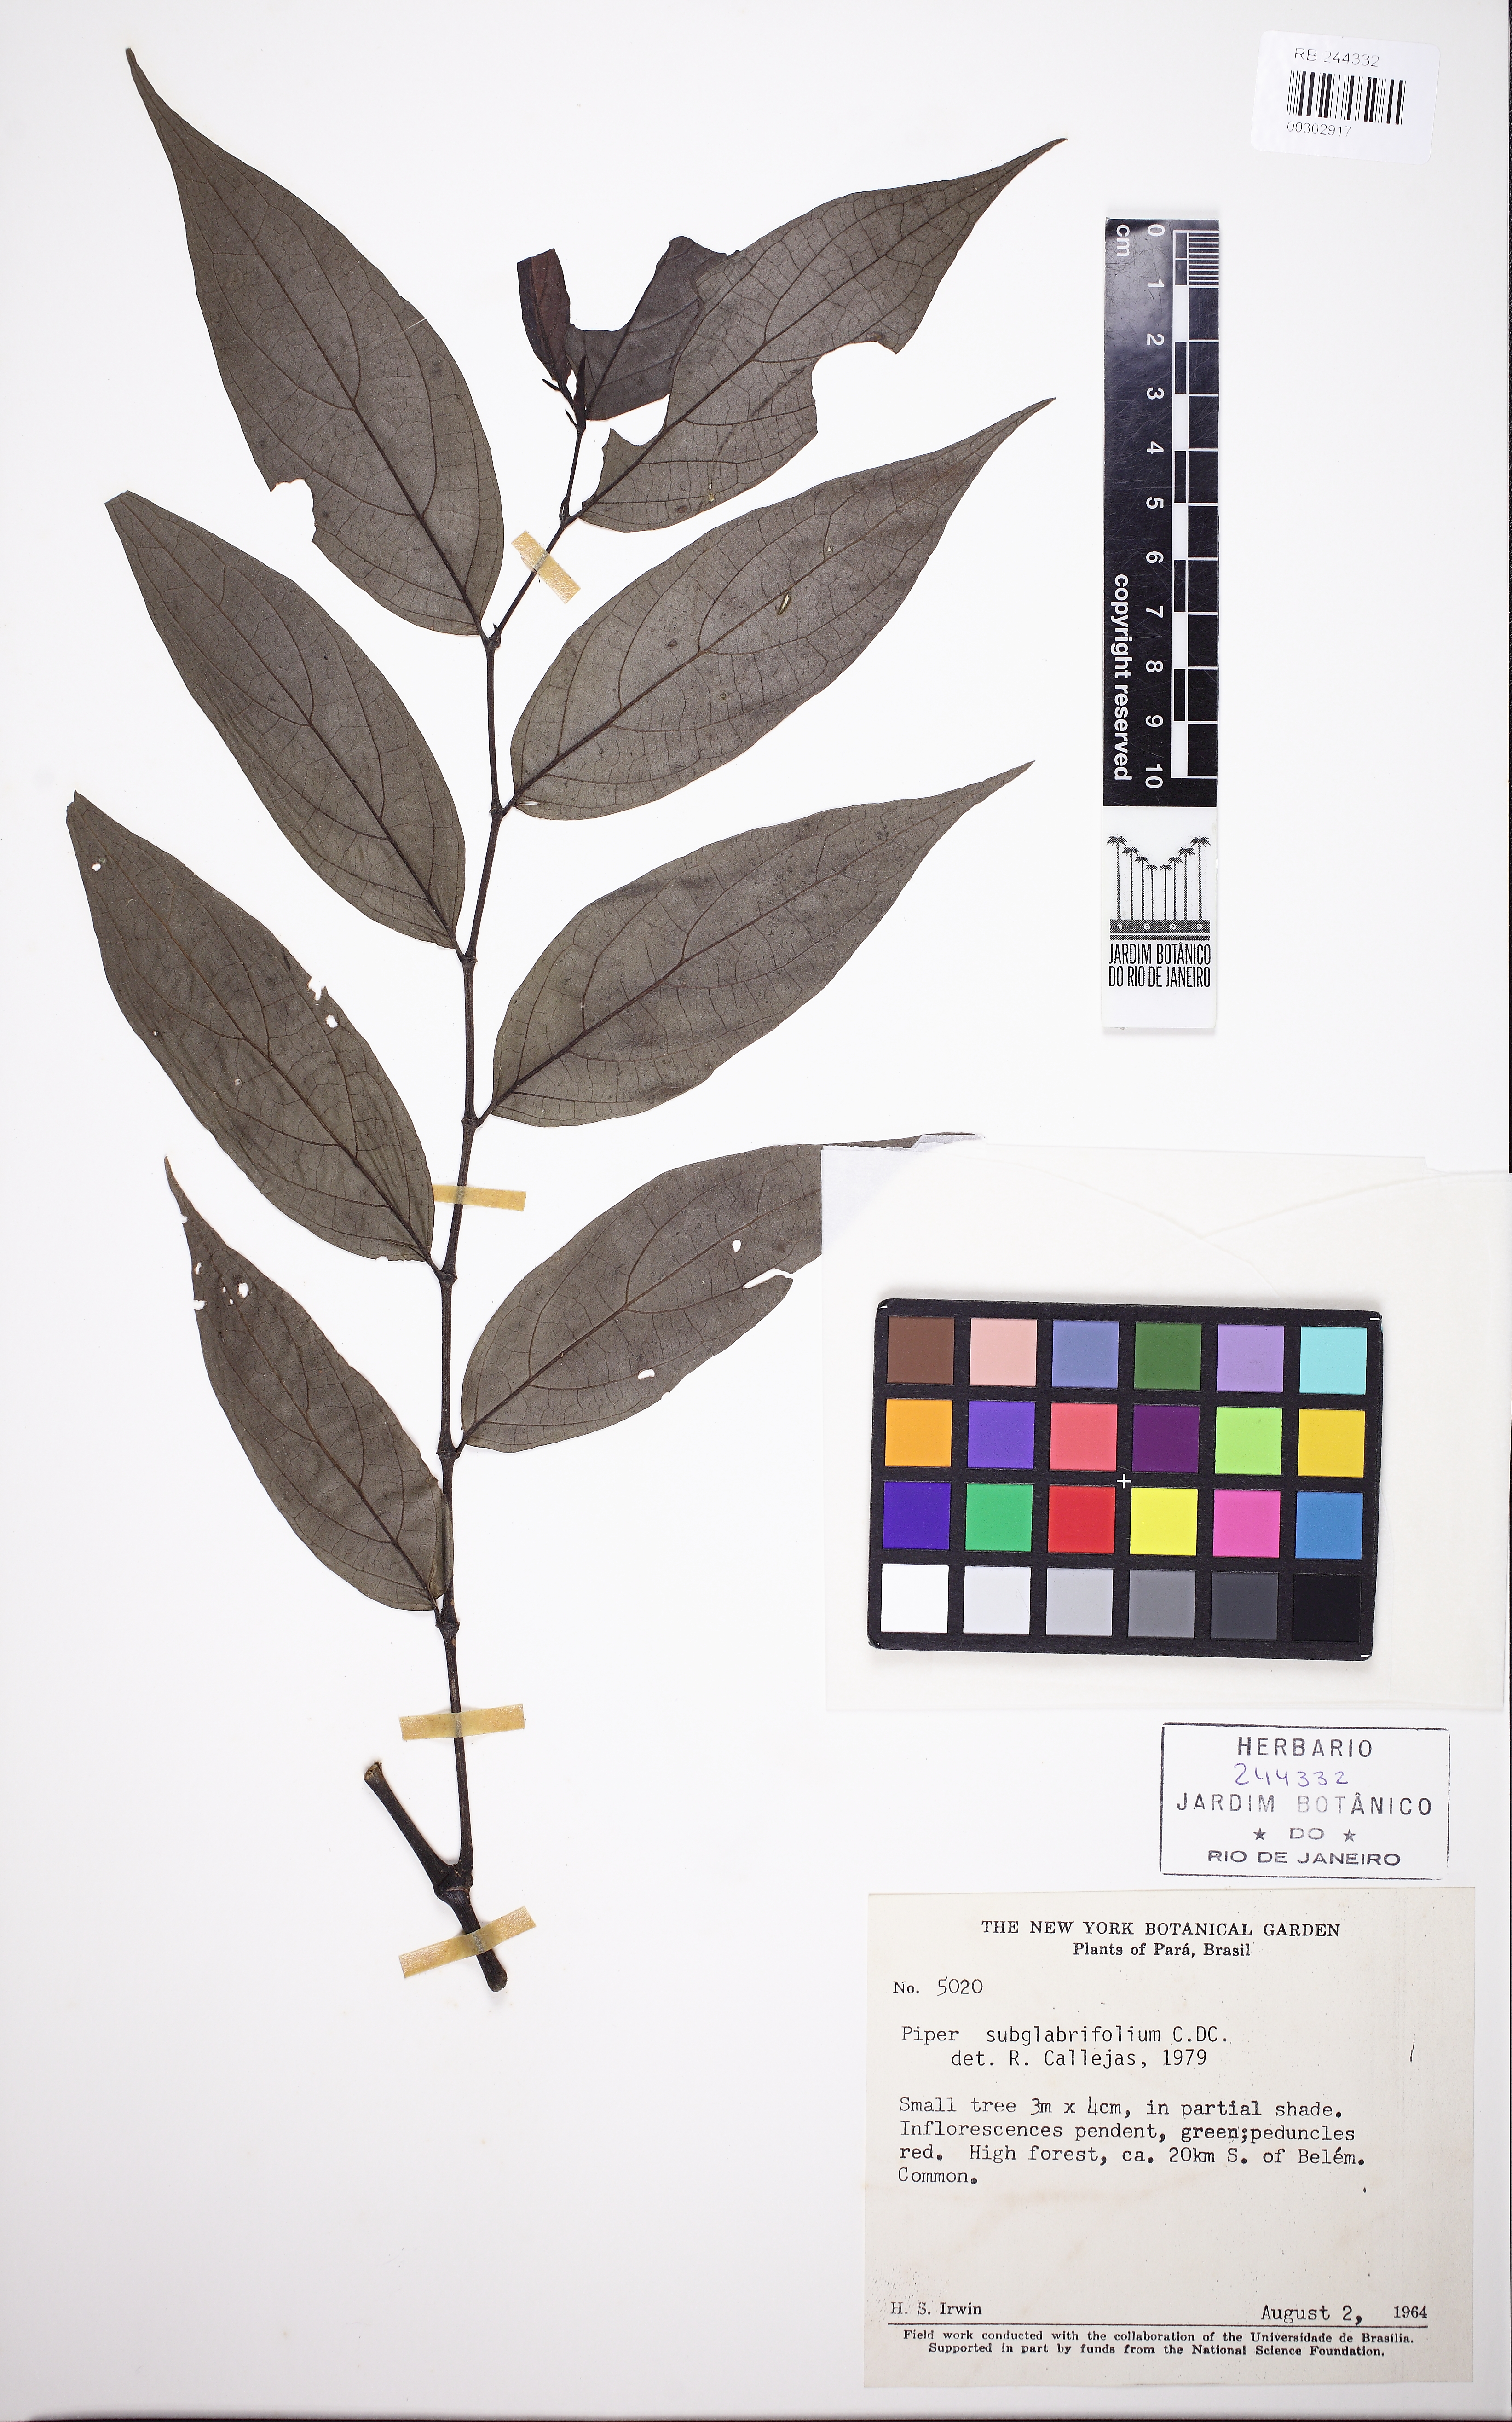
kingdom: Plantae
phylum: Tracheophyta
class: Magnoliopsida
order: Piperales
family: Piperaceae
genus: Piper
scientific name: Piper subglabrifolium
